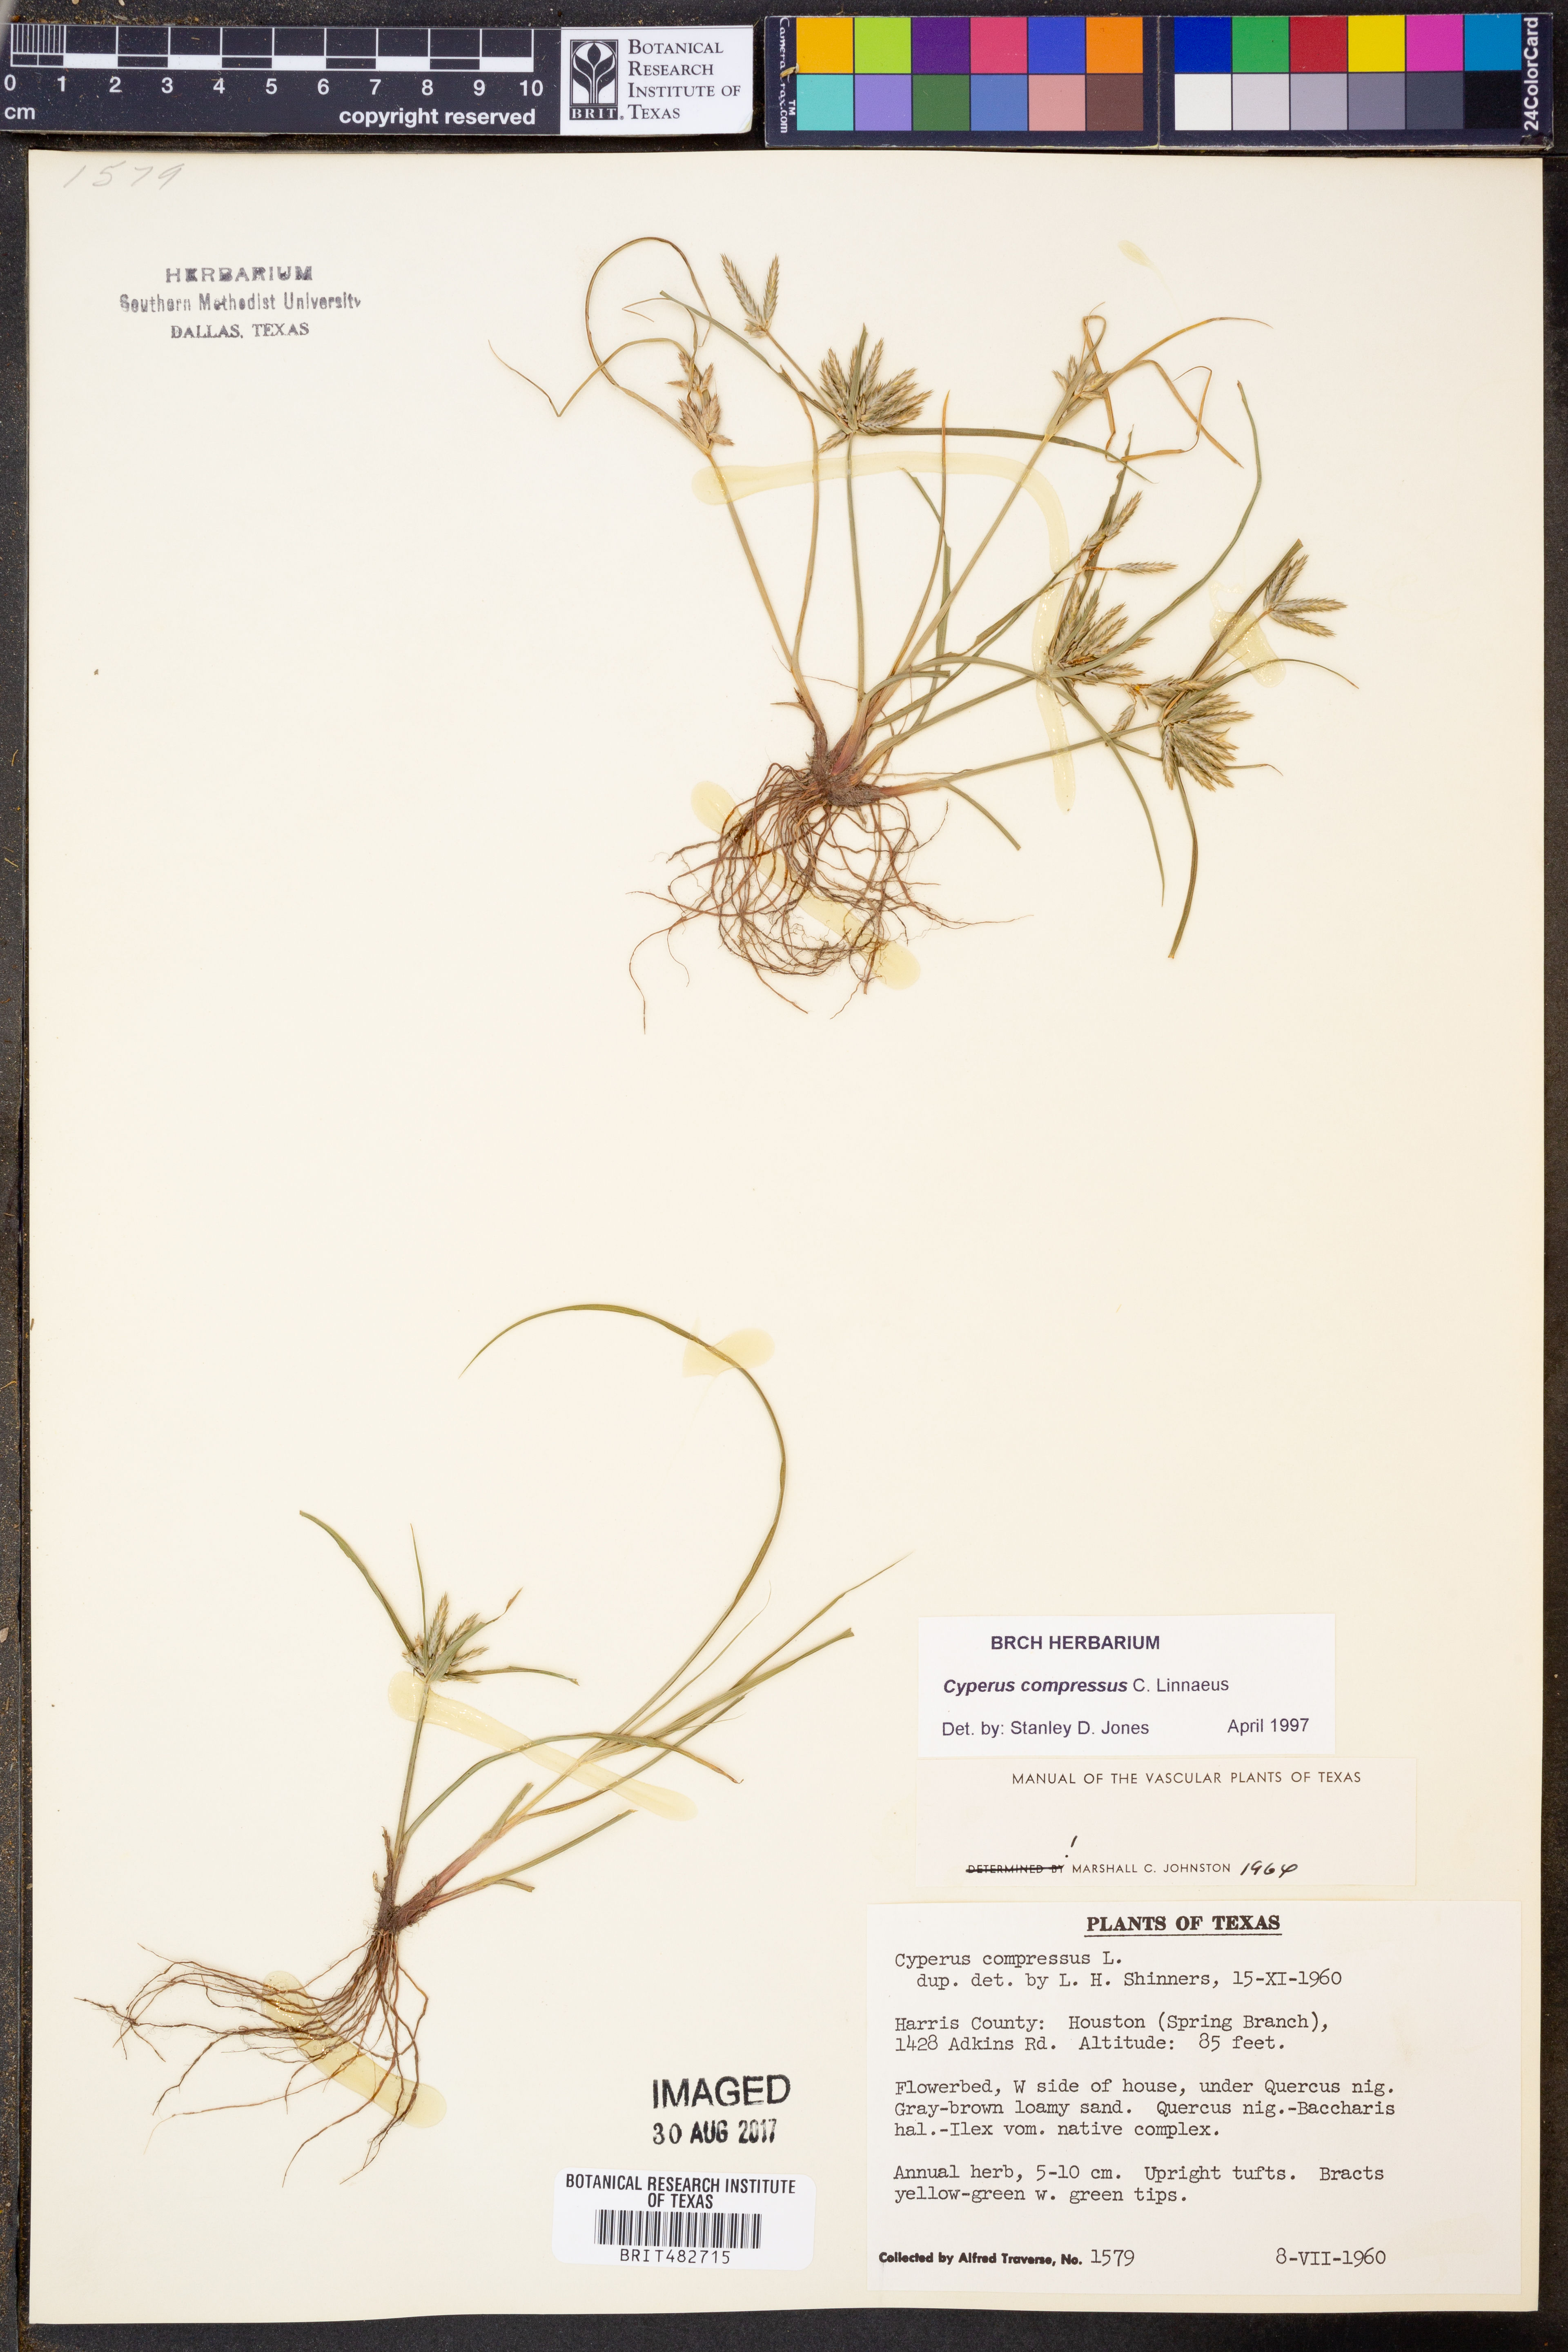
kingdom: Plantae
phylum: Tracheophyta
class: Liliopsida
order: Poales
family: Cyperaceae
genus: Cyperus
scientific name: Cyperus compressus
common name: Poorland flatsedge
